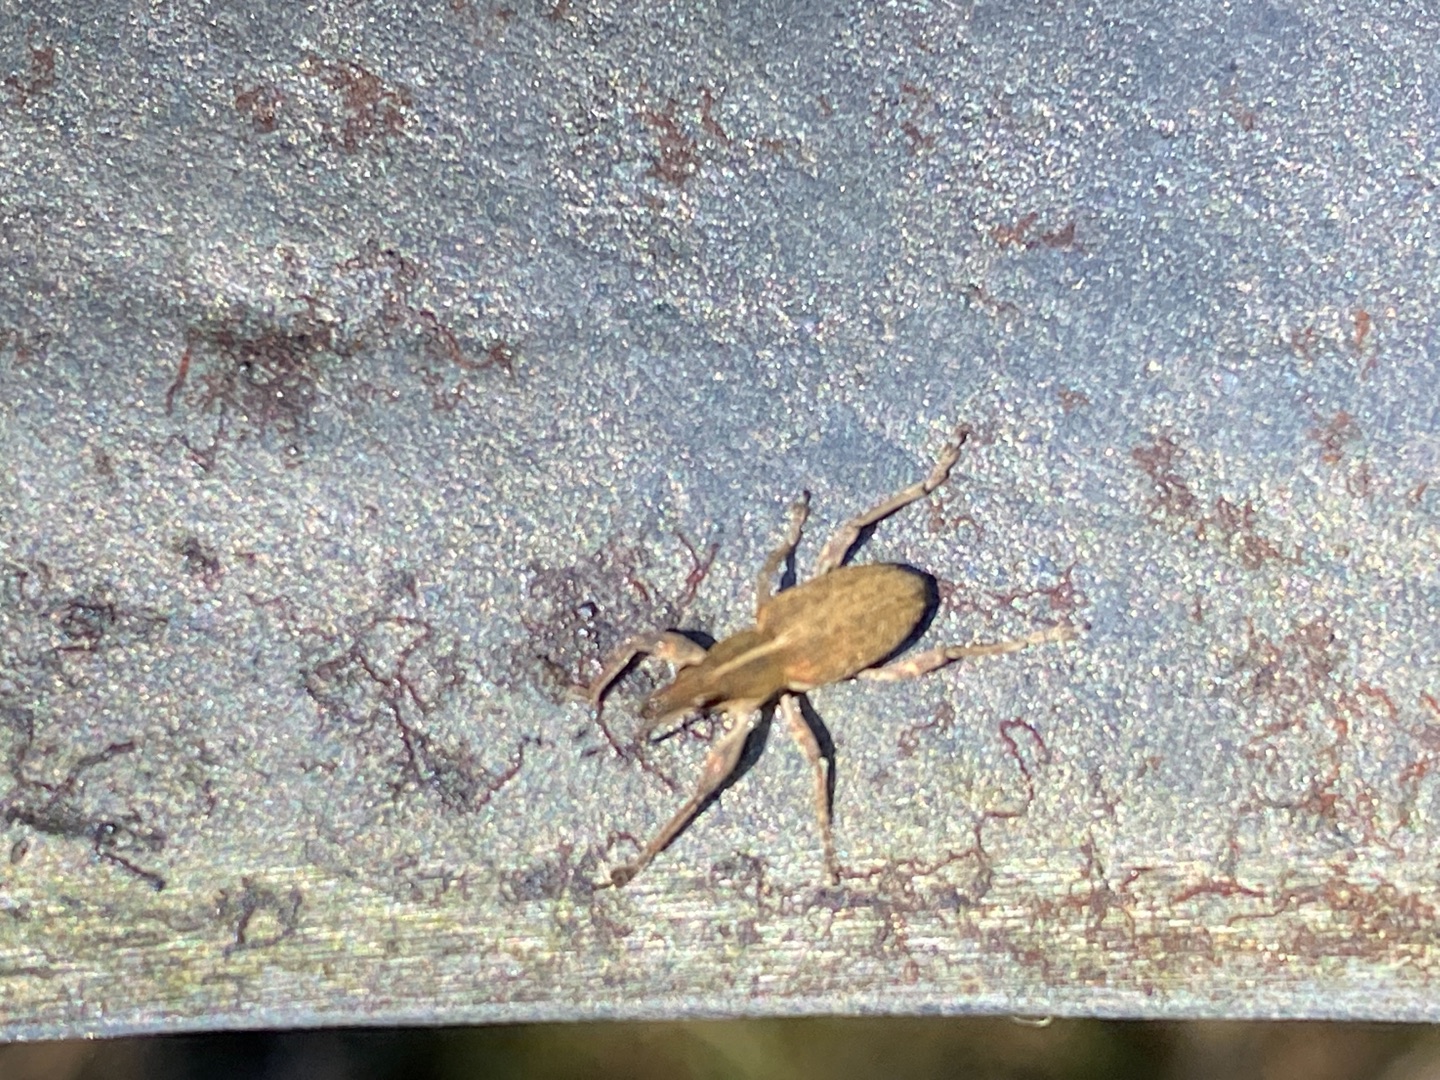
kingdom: Animalia
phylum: Arthropoda
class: Insecta
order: Coleoptera
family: Curculionidae
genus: Charagmus
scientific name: Charagmus gressorius
